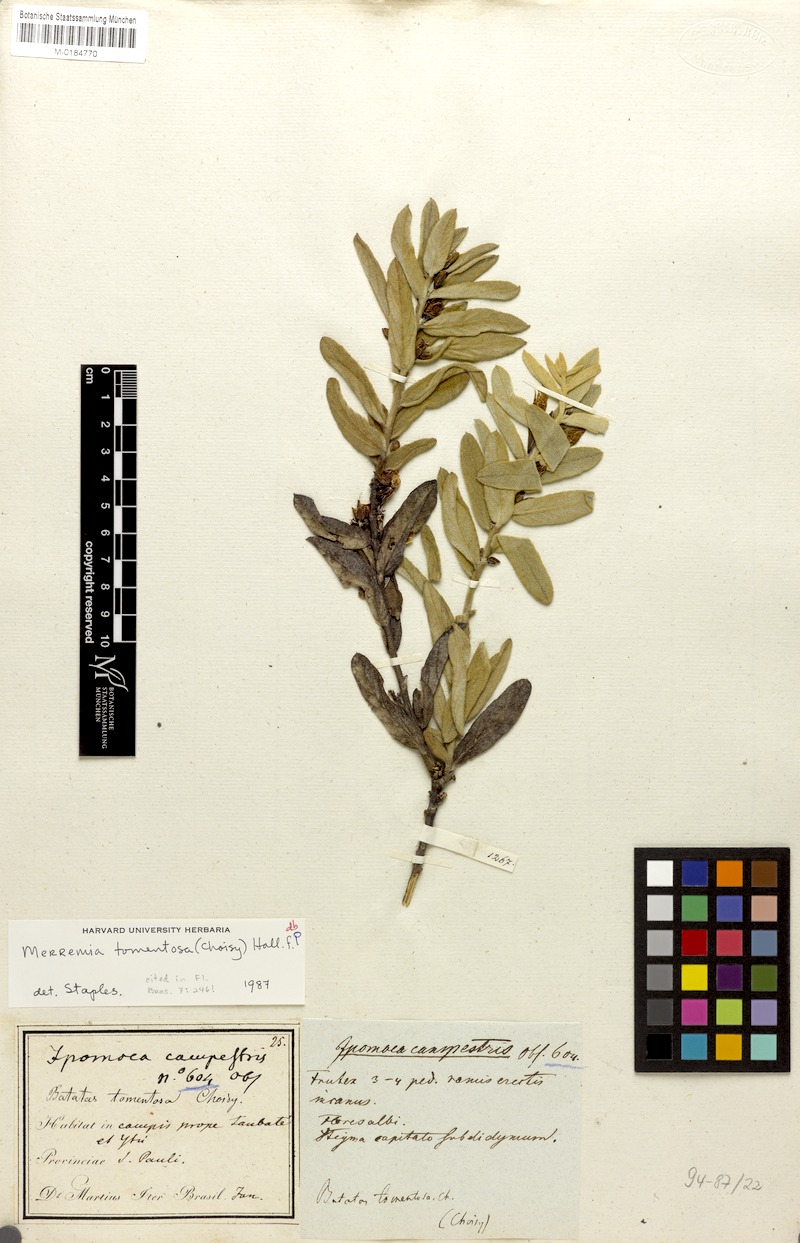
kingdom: Plantae
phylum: Tracheophyta
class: Magnoliopsida
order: Solanales
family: Convolvulaceae
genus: Distimake
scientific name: Distimake tomentosus
